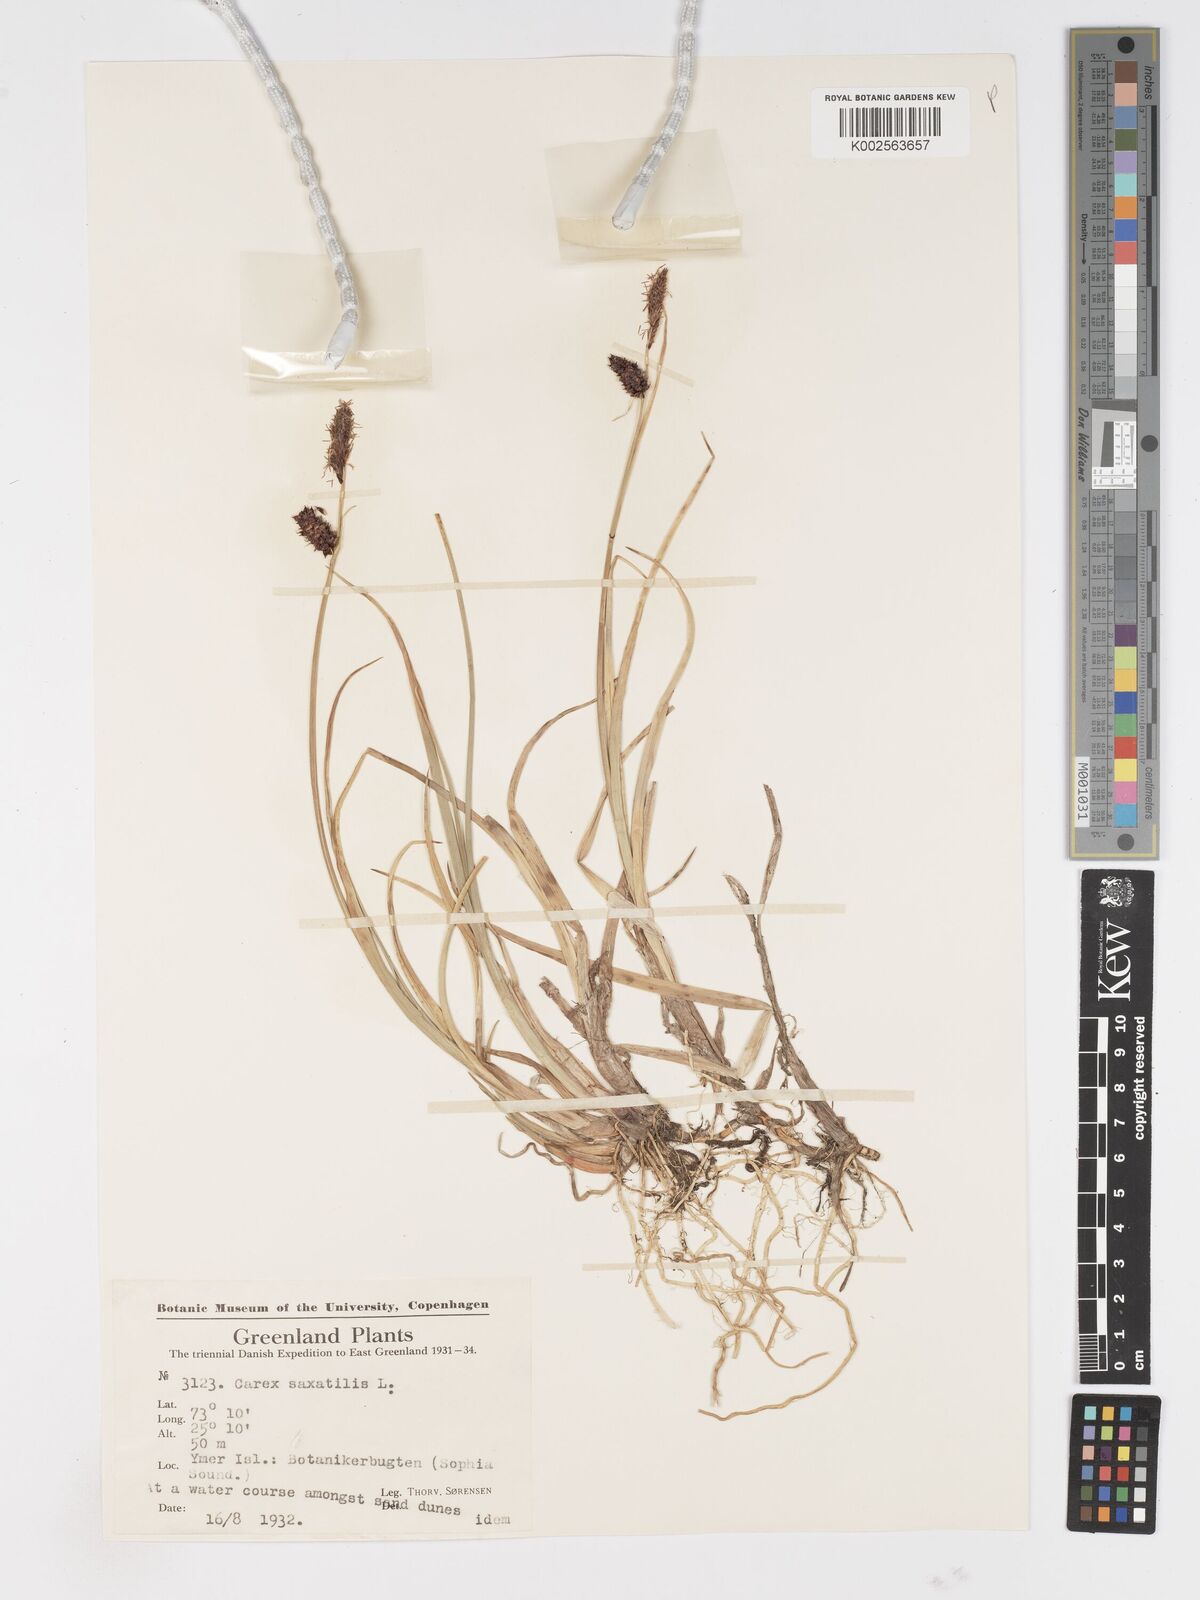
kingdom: Plantae
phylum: Tracheophyta
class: Liliopsida
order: Poales
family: Cyperaceae
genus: Carex
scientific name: Carex saxatilis
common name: Russet sedge
